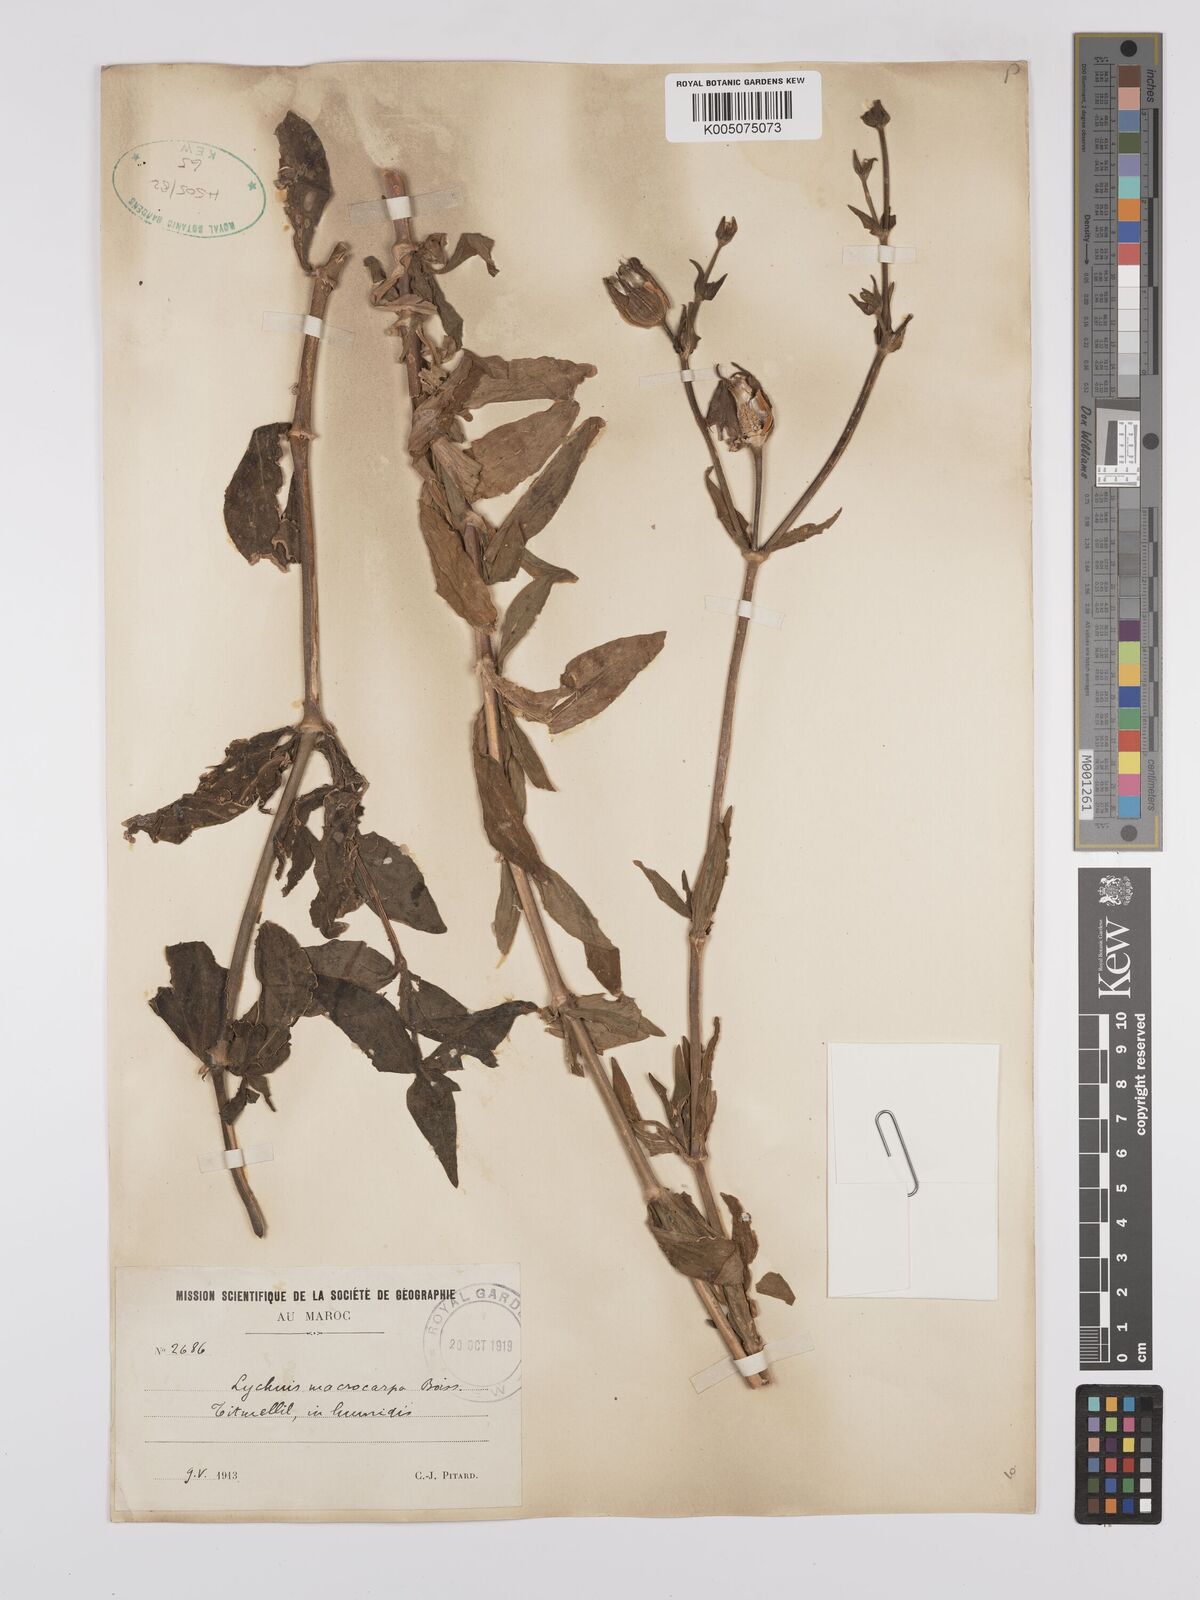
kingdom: Plantae
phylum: Tracheophyta
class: Magnoliopsida
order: Caryophyllales
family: Caryophyllaceae
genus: Silene
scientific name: Silene
